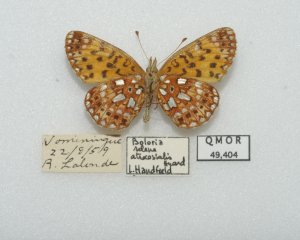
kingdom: Animalia
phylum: Arthropoda
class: Insecta
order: Lepidoptera
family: Nymphalidae
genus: Boloria
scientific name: Boloria selene
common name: Silver-bordered Fritillary
